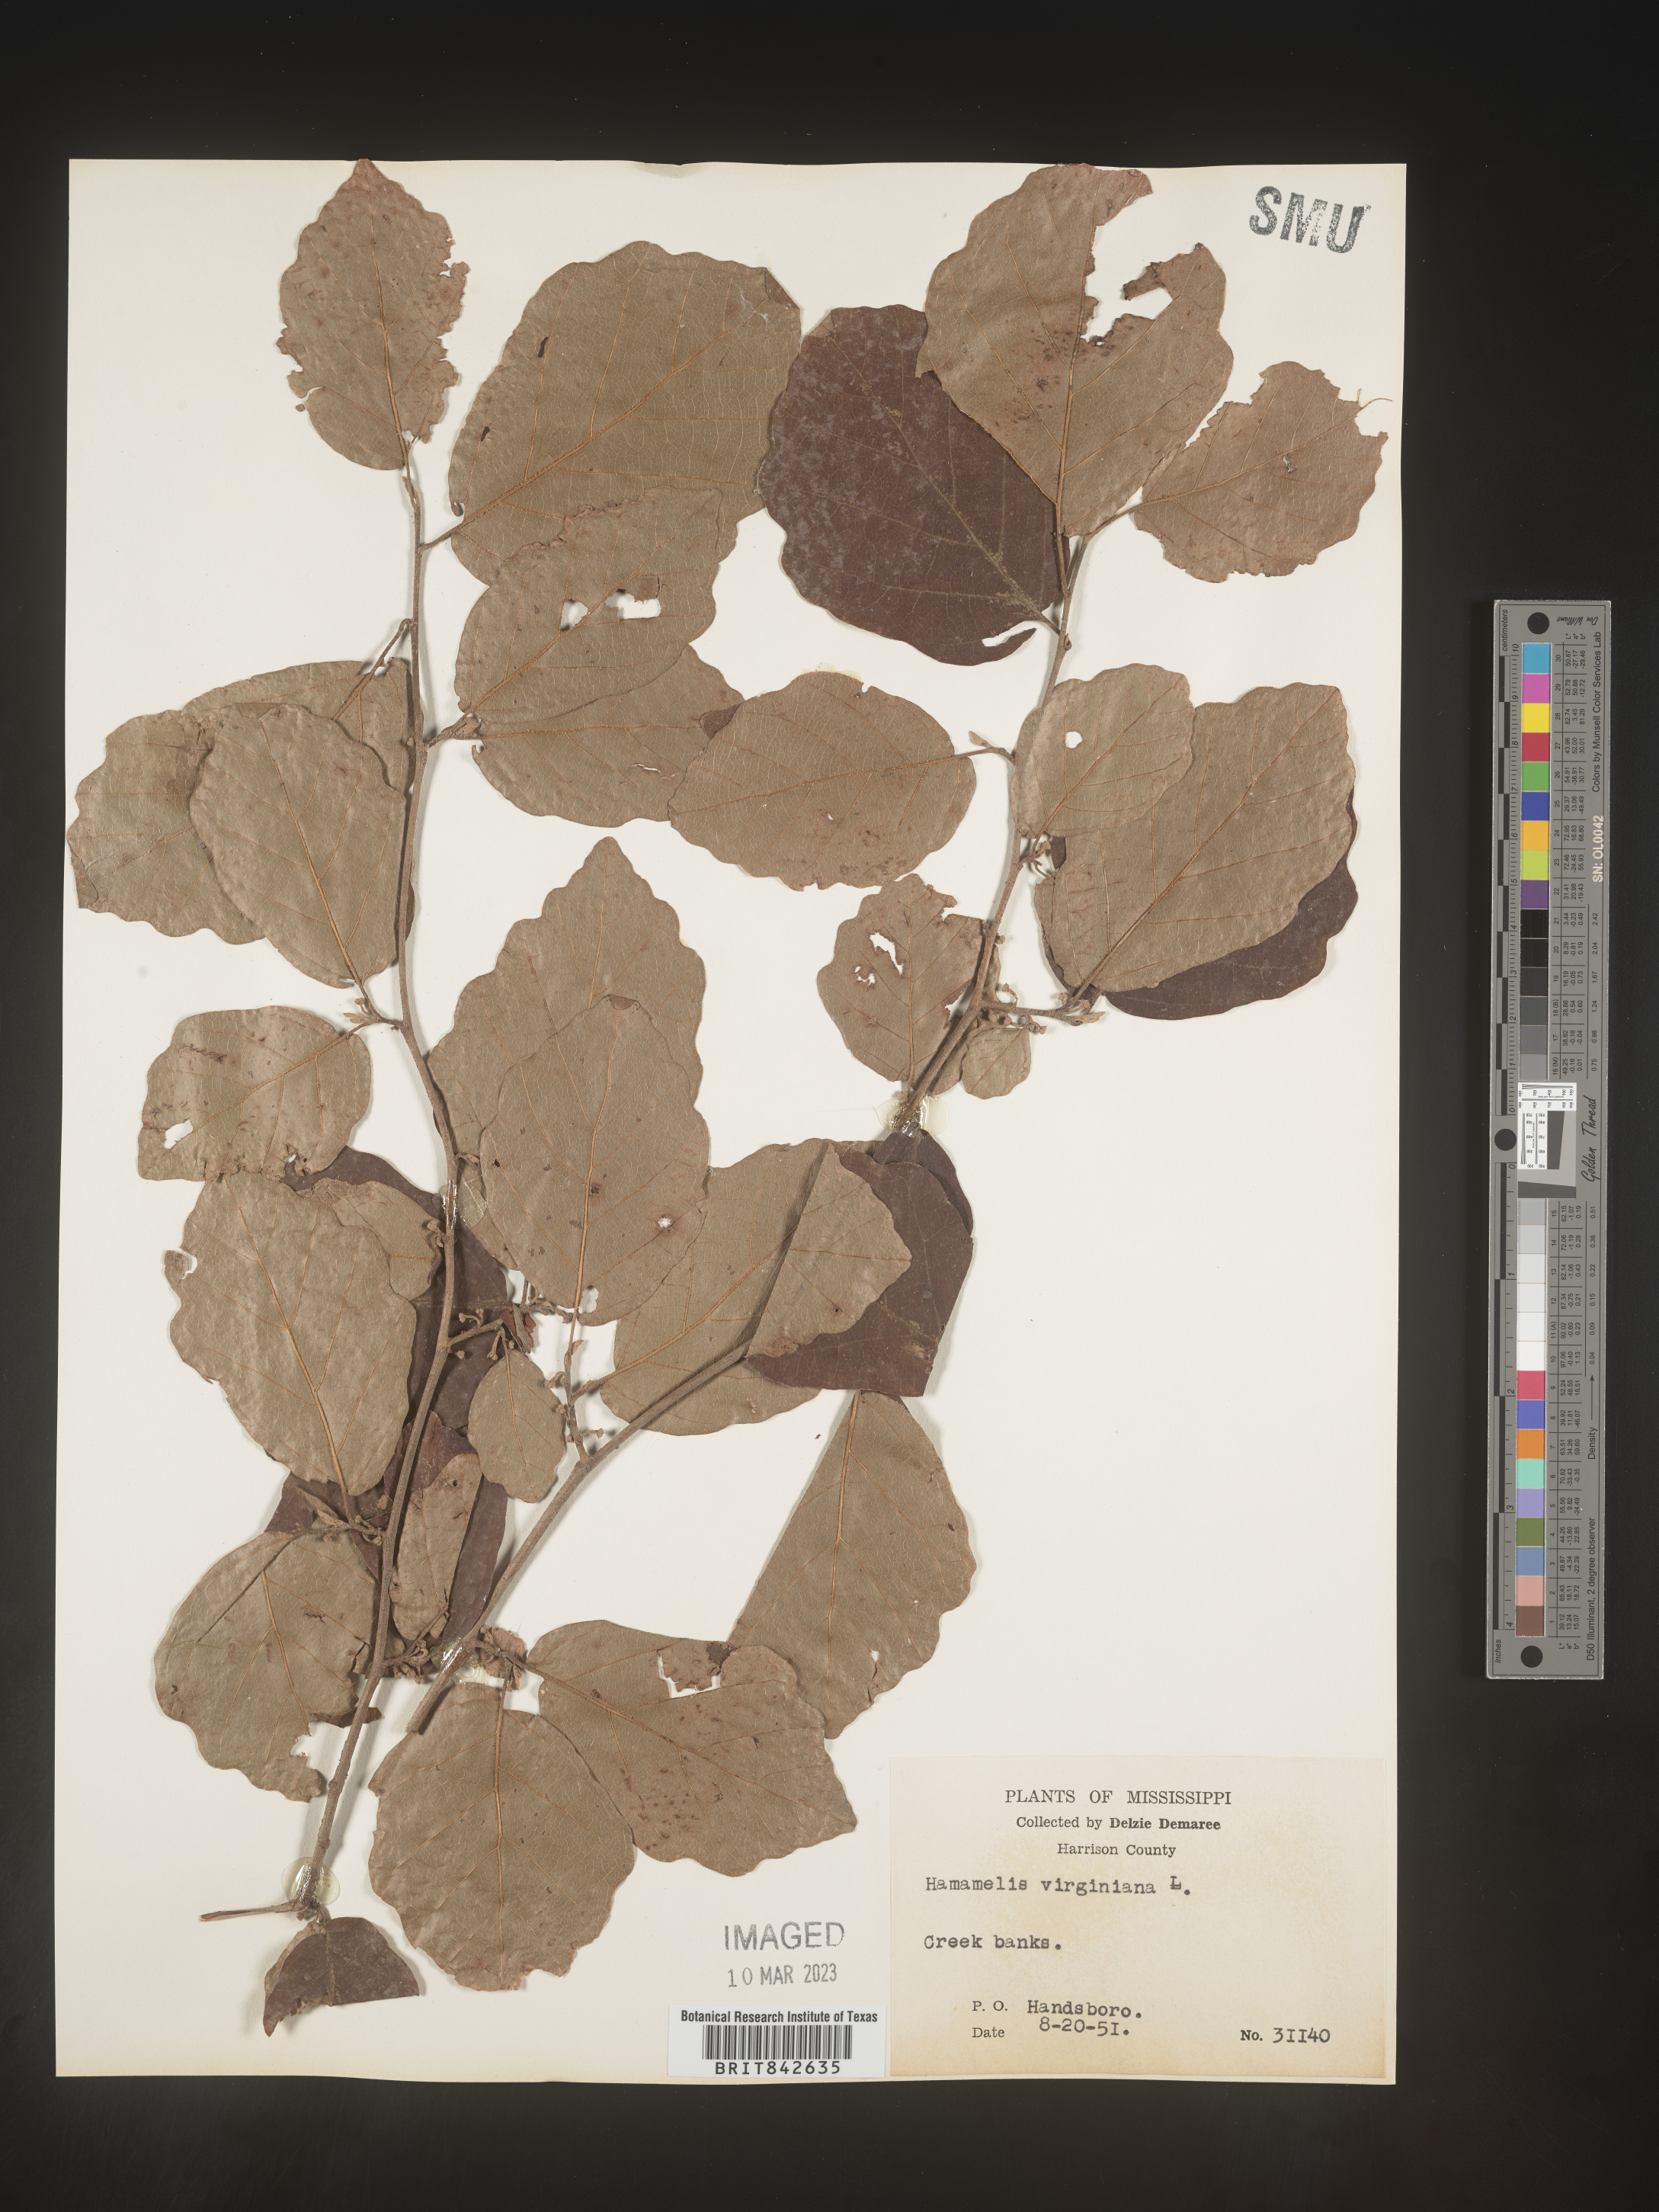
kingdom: Plantae
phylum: Tracheophyta
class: Magnoliopsida
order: Saxifragales
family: Hamamelidaceae
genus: Hamamelis
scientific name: Hamamelis
